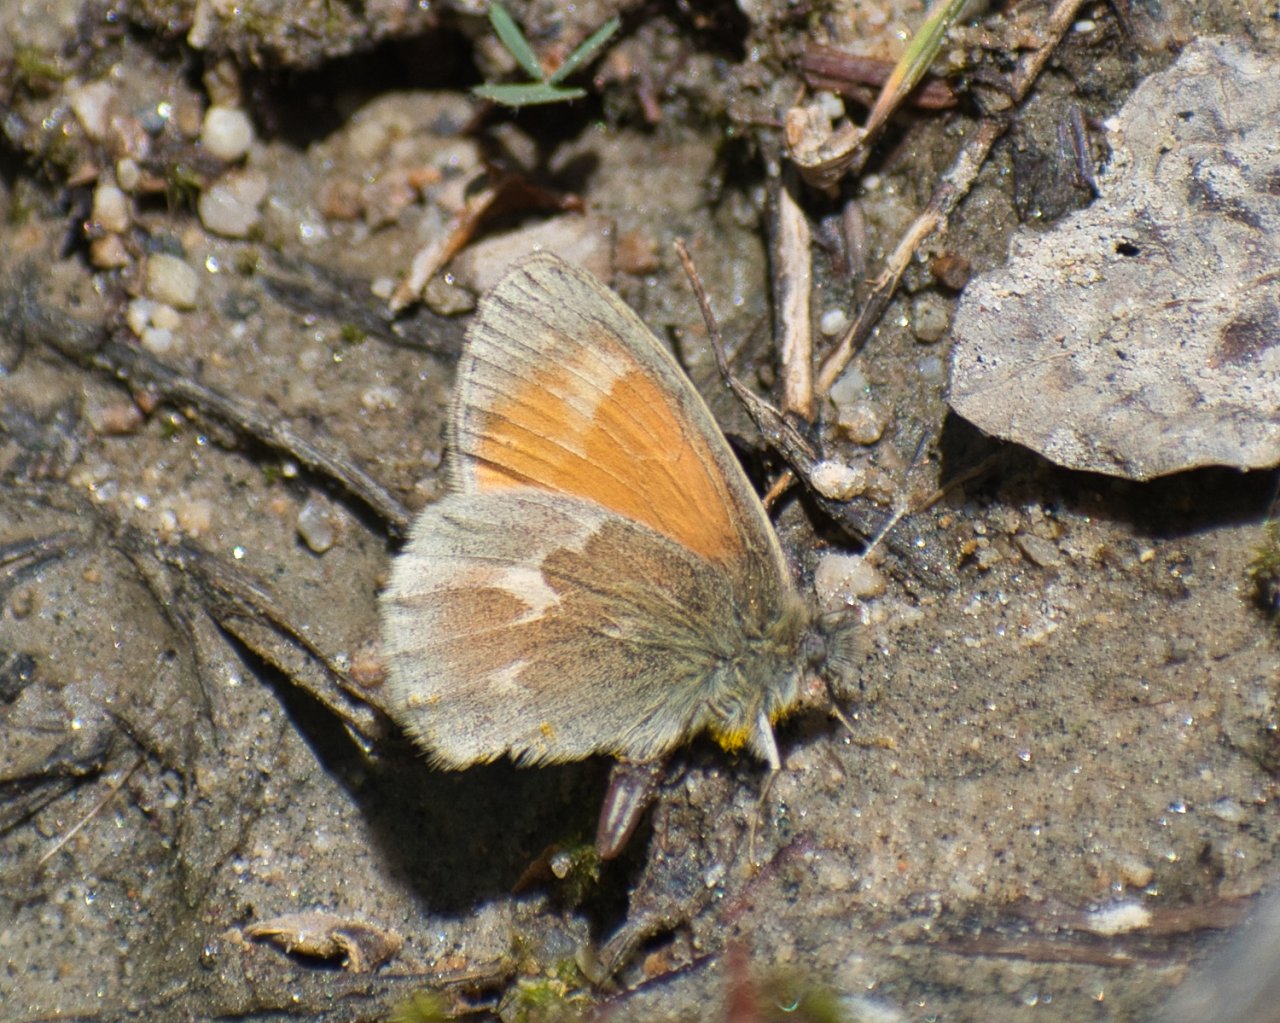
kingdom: Animalia
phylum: Arthropoda
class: Insecta
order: Lepidoptera
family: Nymphalidae
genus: Coenonympha
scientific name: Coenonympha tullia
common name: Large Heath
